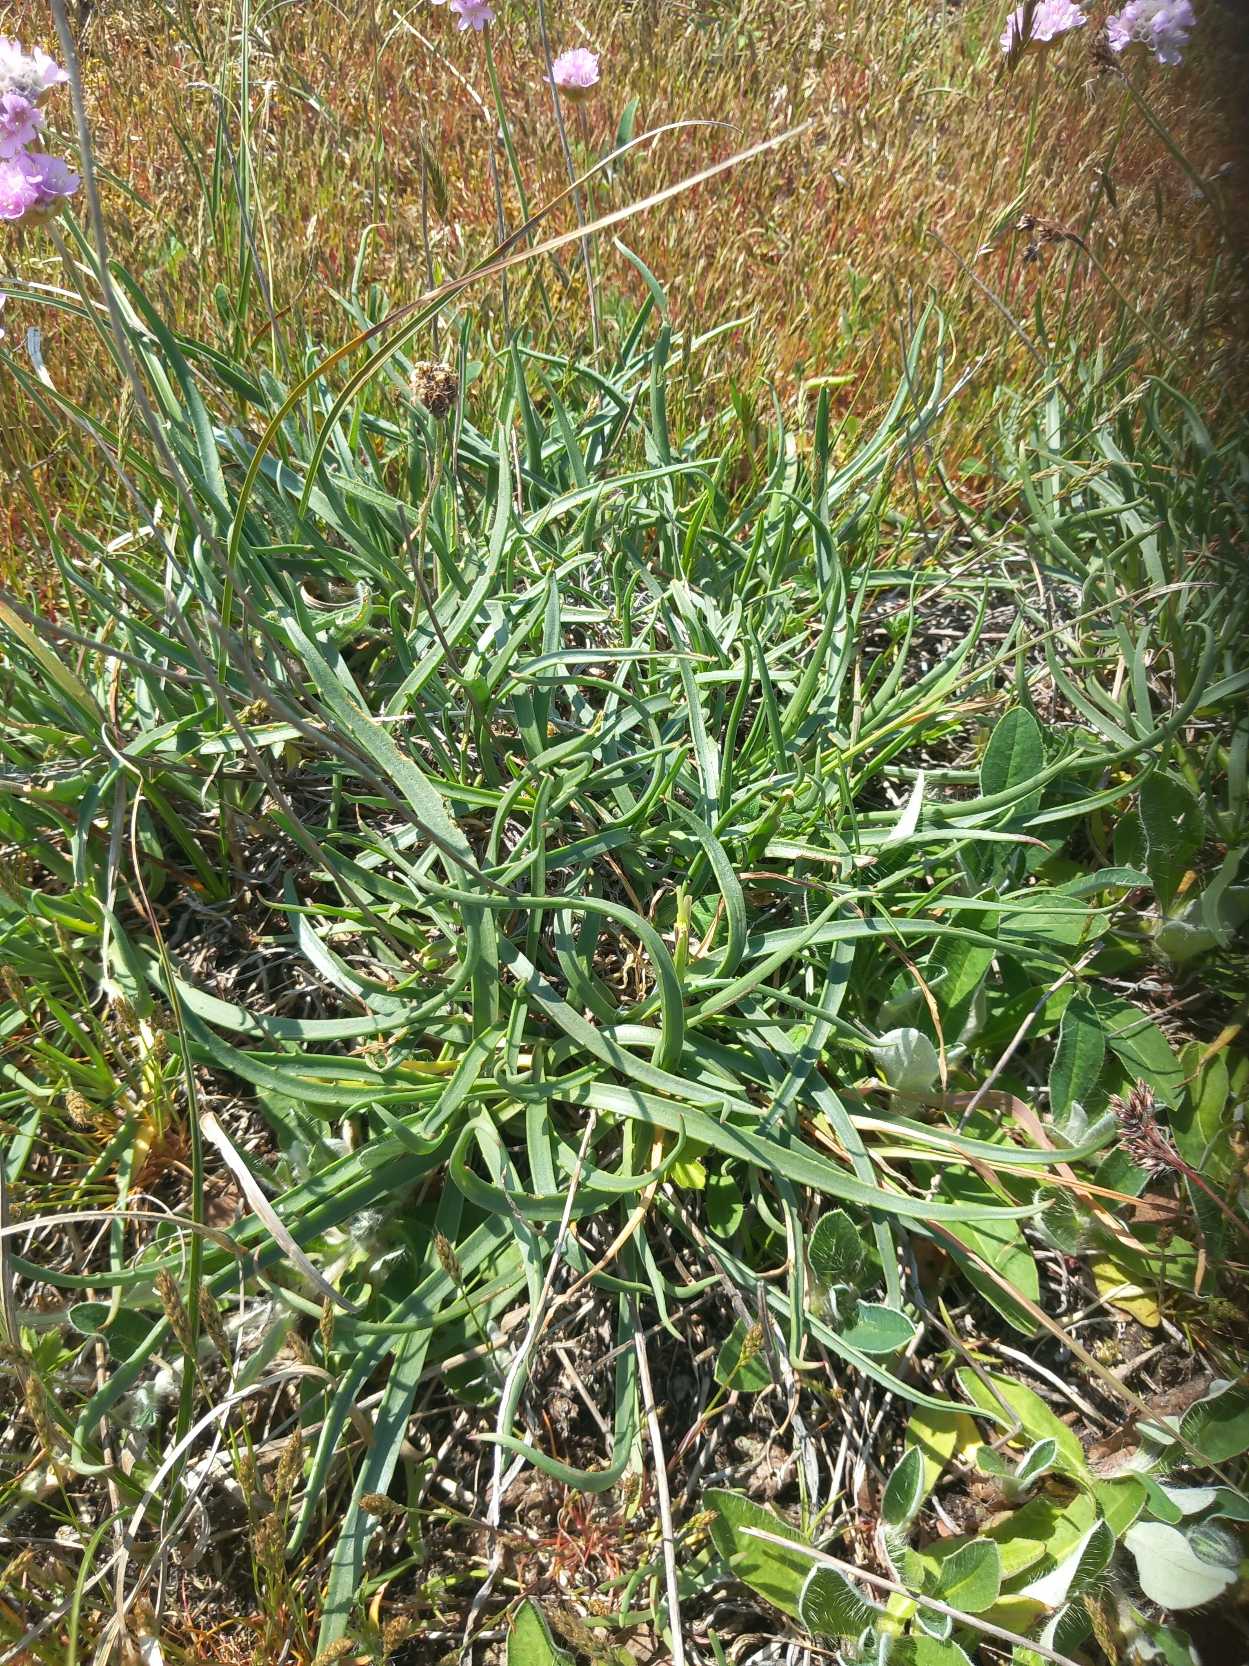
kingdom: Plantae
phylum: Tracheophyta
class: Magnoliopsida
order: Lamiales
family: Plantaginaceae
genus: Plantago
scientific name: Plantago maritima
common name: Strand-vejbred
